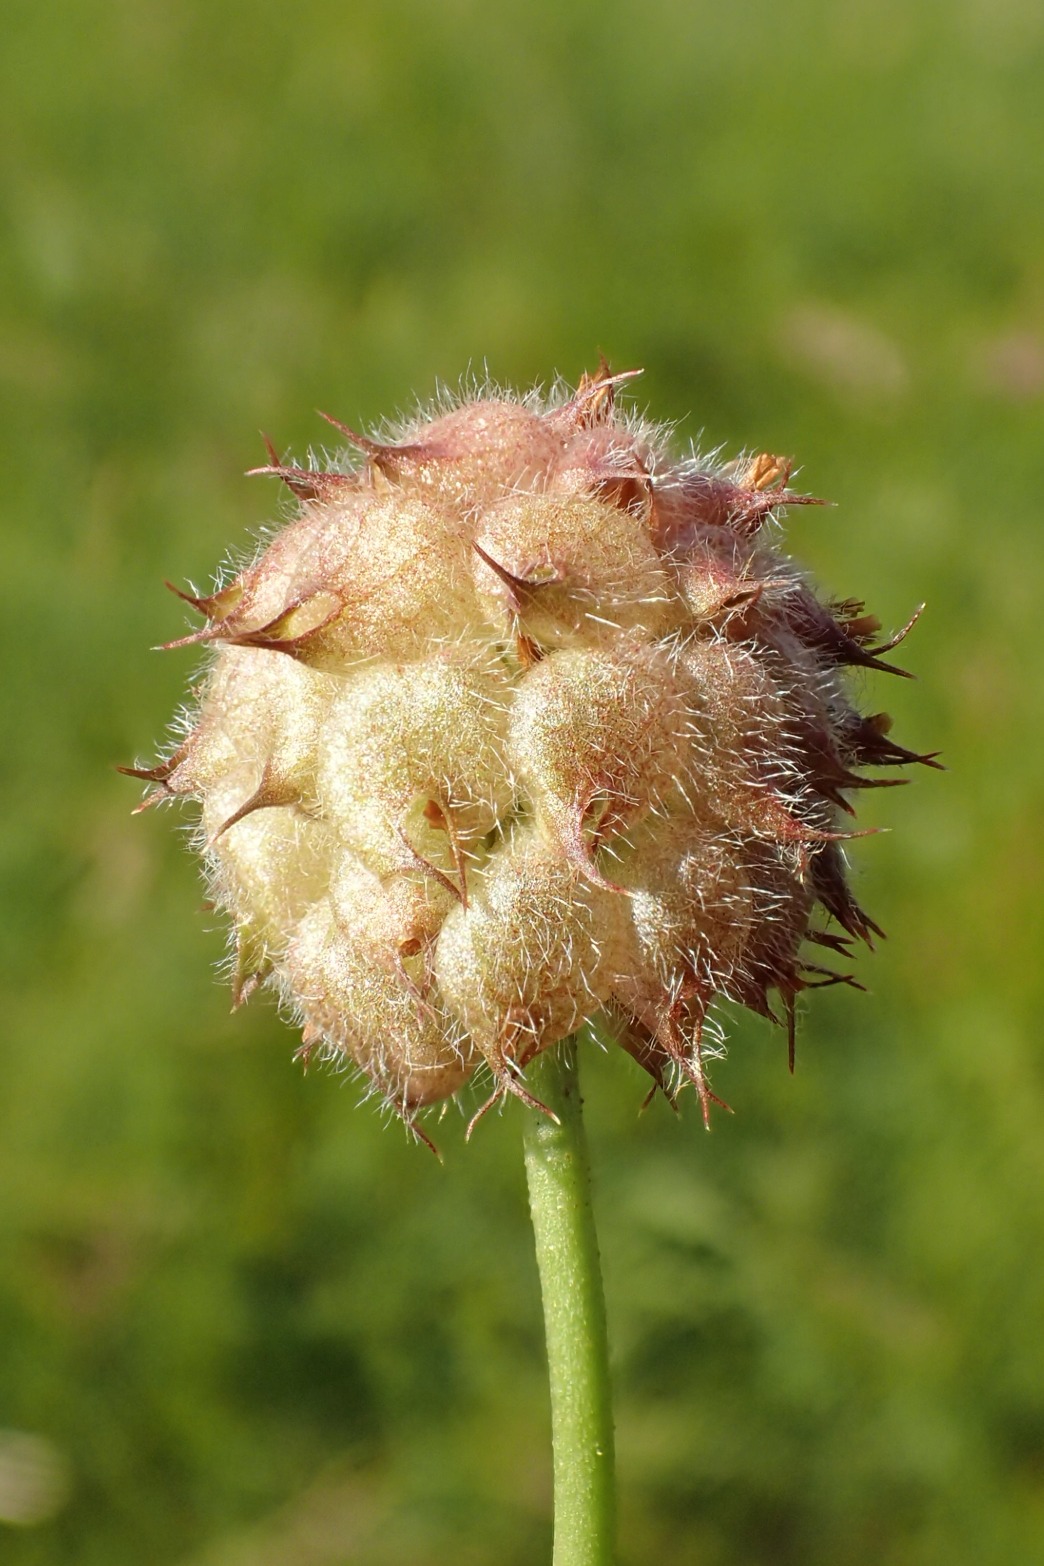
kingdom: Plantae
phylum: Tracheophyta
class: Magnoliopsida
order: Fabales
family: Fabaceae
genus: Trifolium
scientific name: Trifolium fragiferum
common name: Jordbær-kløver
